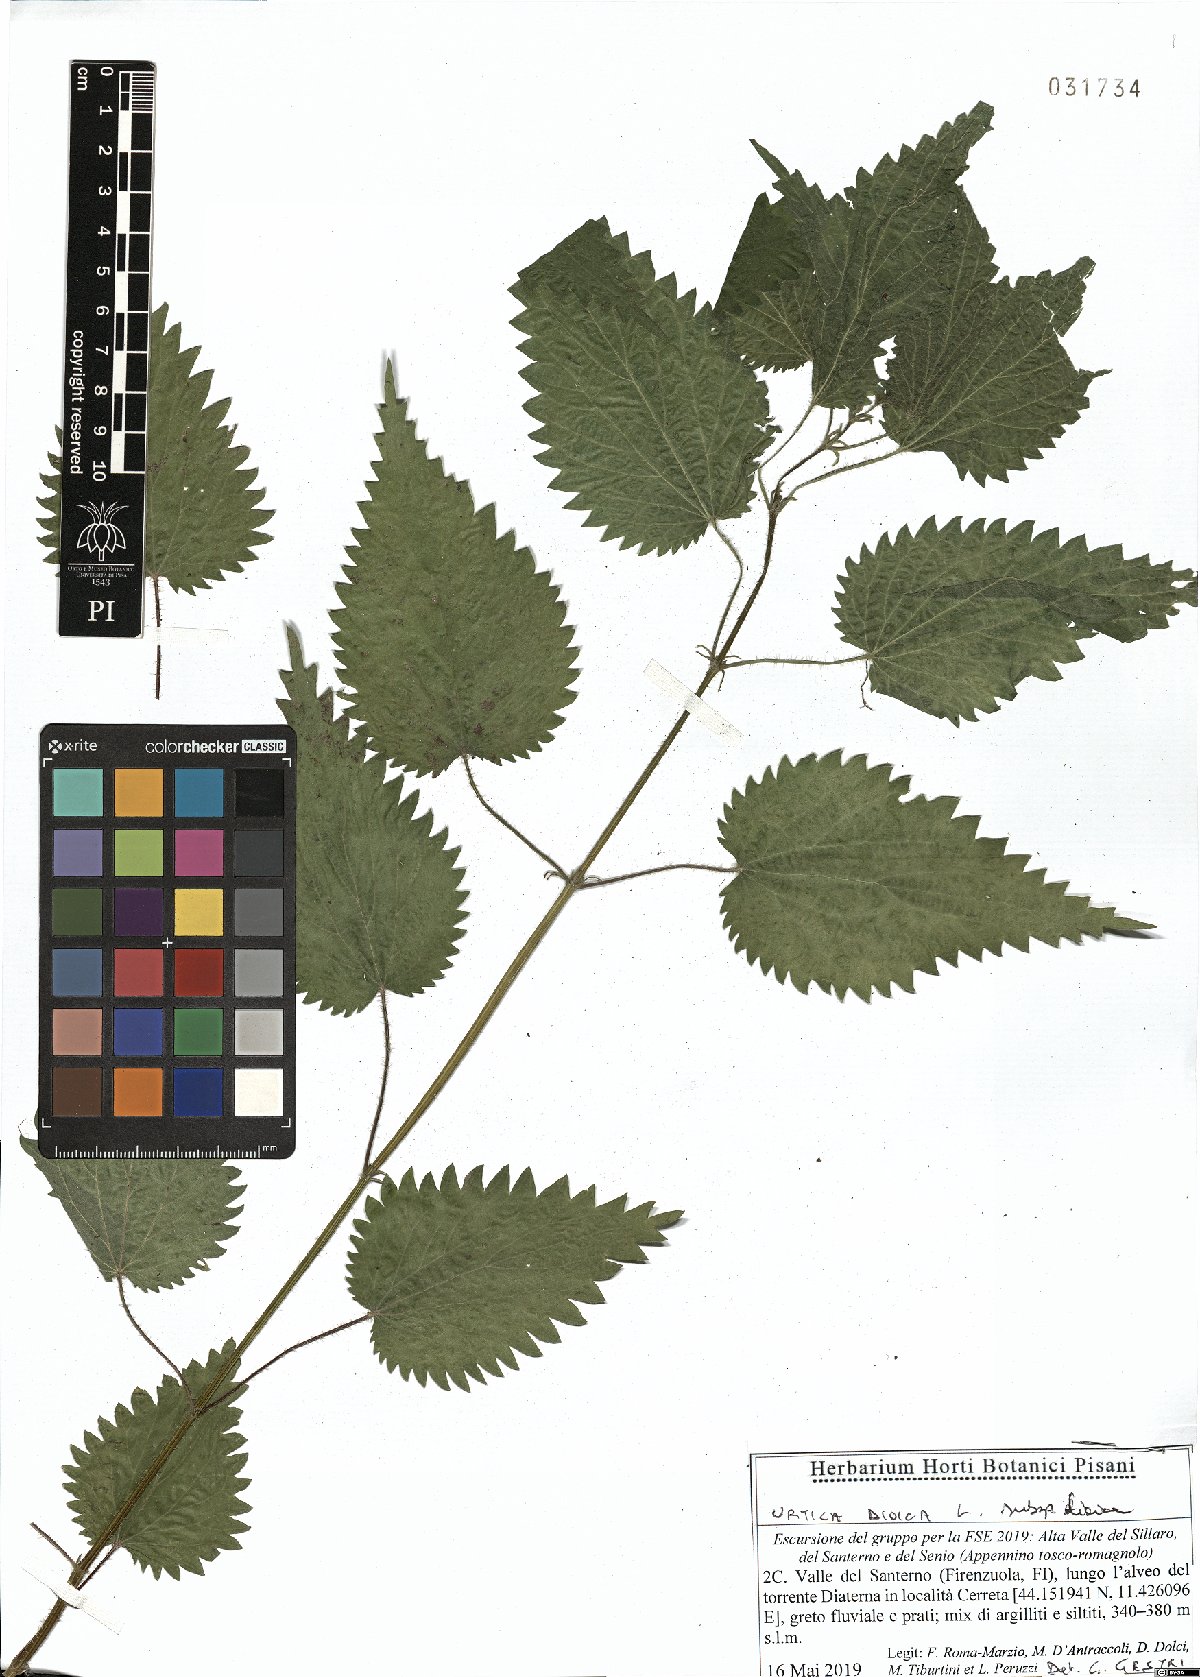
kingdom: Plantae
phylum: Tracheophyta
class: Magnoliopsida
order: Rosales
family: Urticaceae
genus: Urtica
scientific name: Urtica dioica
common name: Common nettle
